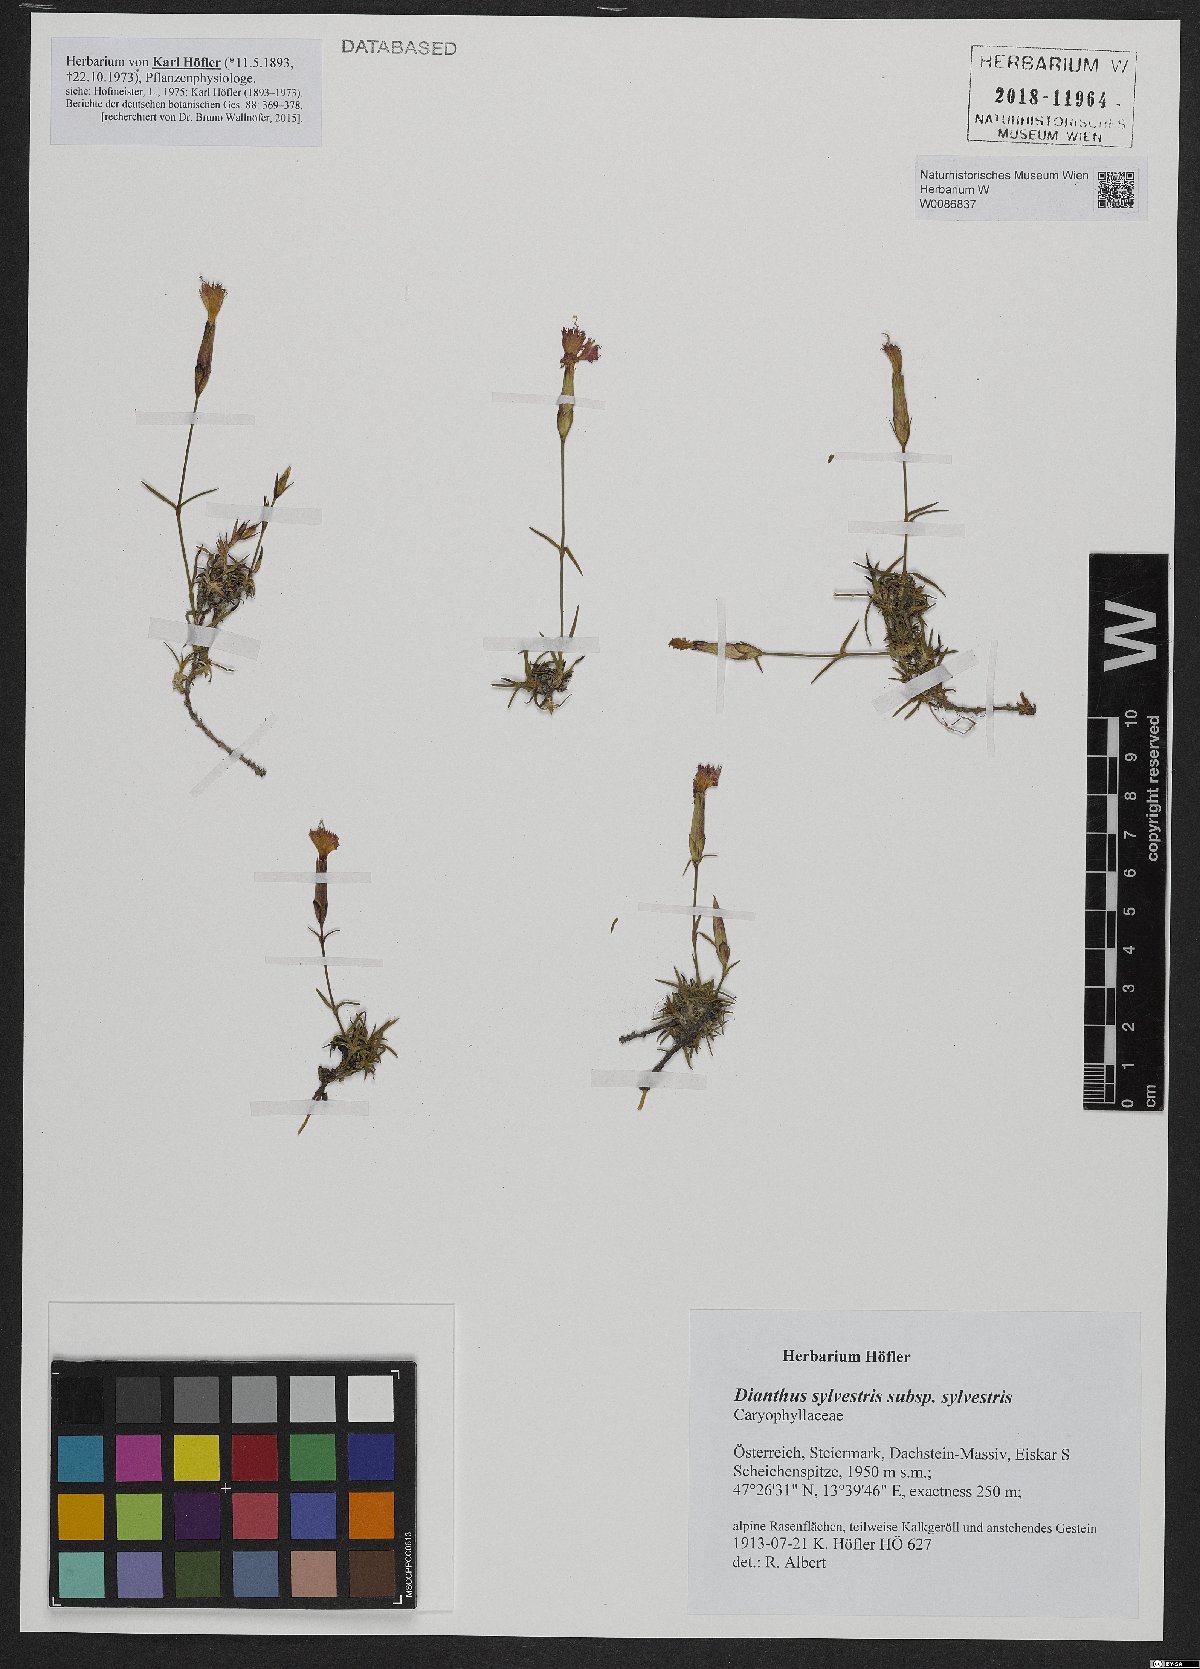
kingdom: Plantae
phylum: Tracheophyta
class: Magnoliopsida
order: Caryophyllales
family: Caryophyllaceae
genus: Dianthus
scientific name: Dianthus sylvestris
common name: Wood pink
